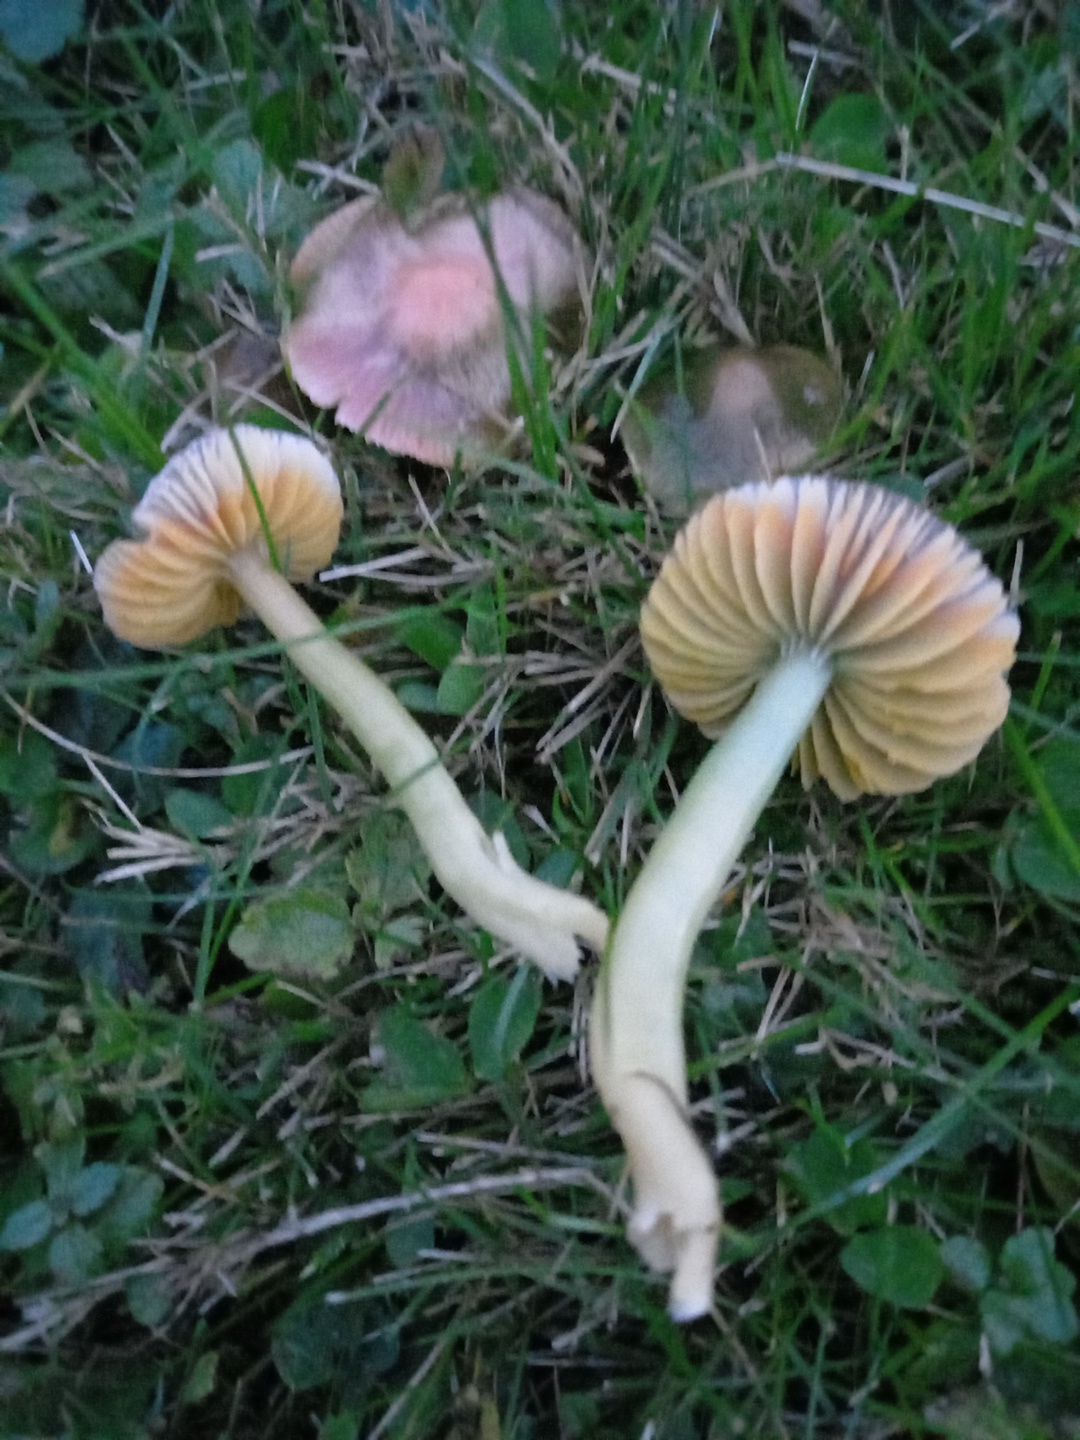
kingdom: Fungi
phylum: Basidiomycota
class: Agaricomycetes
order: Agaricales
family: Hygrophoraceae
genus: Gliophorus
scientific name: Gliophorus psittacinus
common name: papegøje-vokshat
